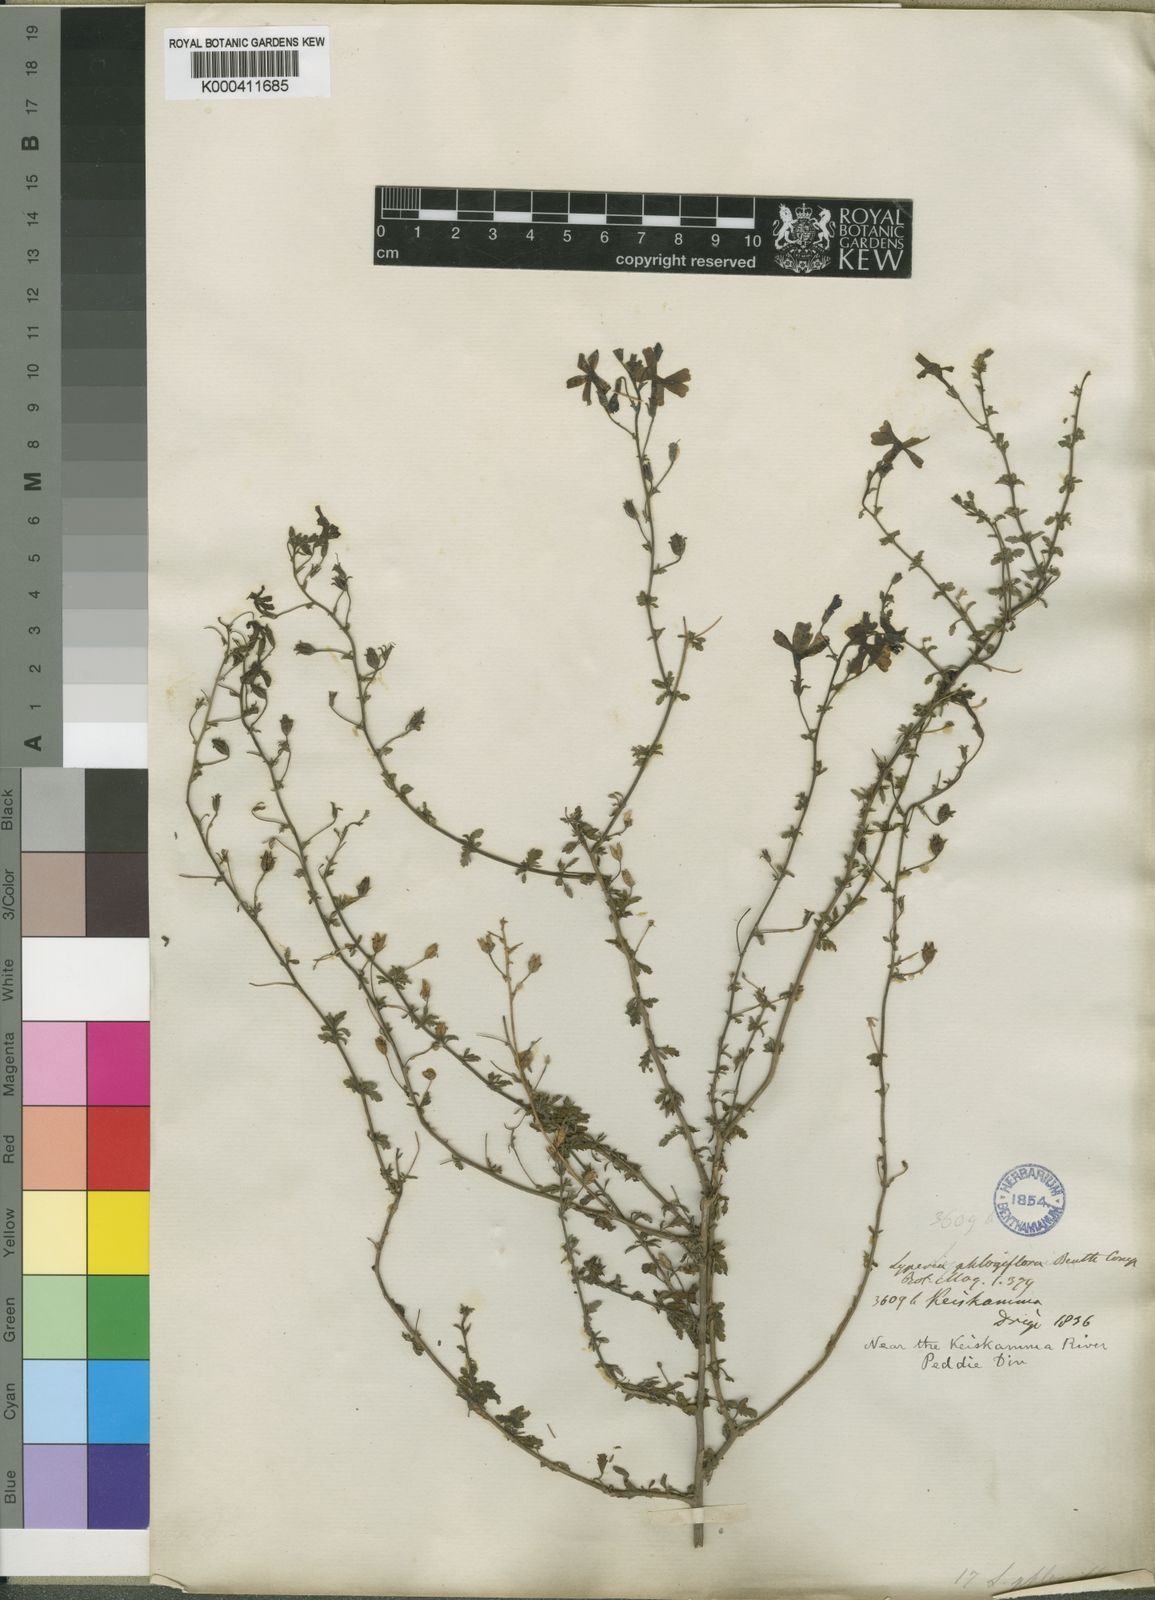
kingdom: Plantae
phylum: Tracheophyta
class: Magnoliopsida
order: Lamiales
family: Scrophulariaceae
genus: Jamesbrittenia
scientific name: Jamesbrittenia phlogiflora
